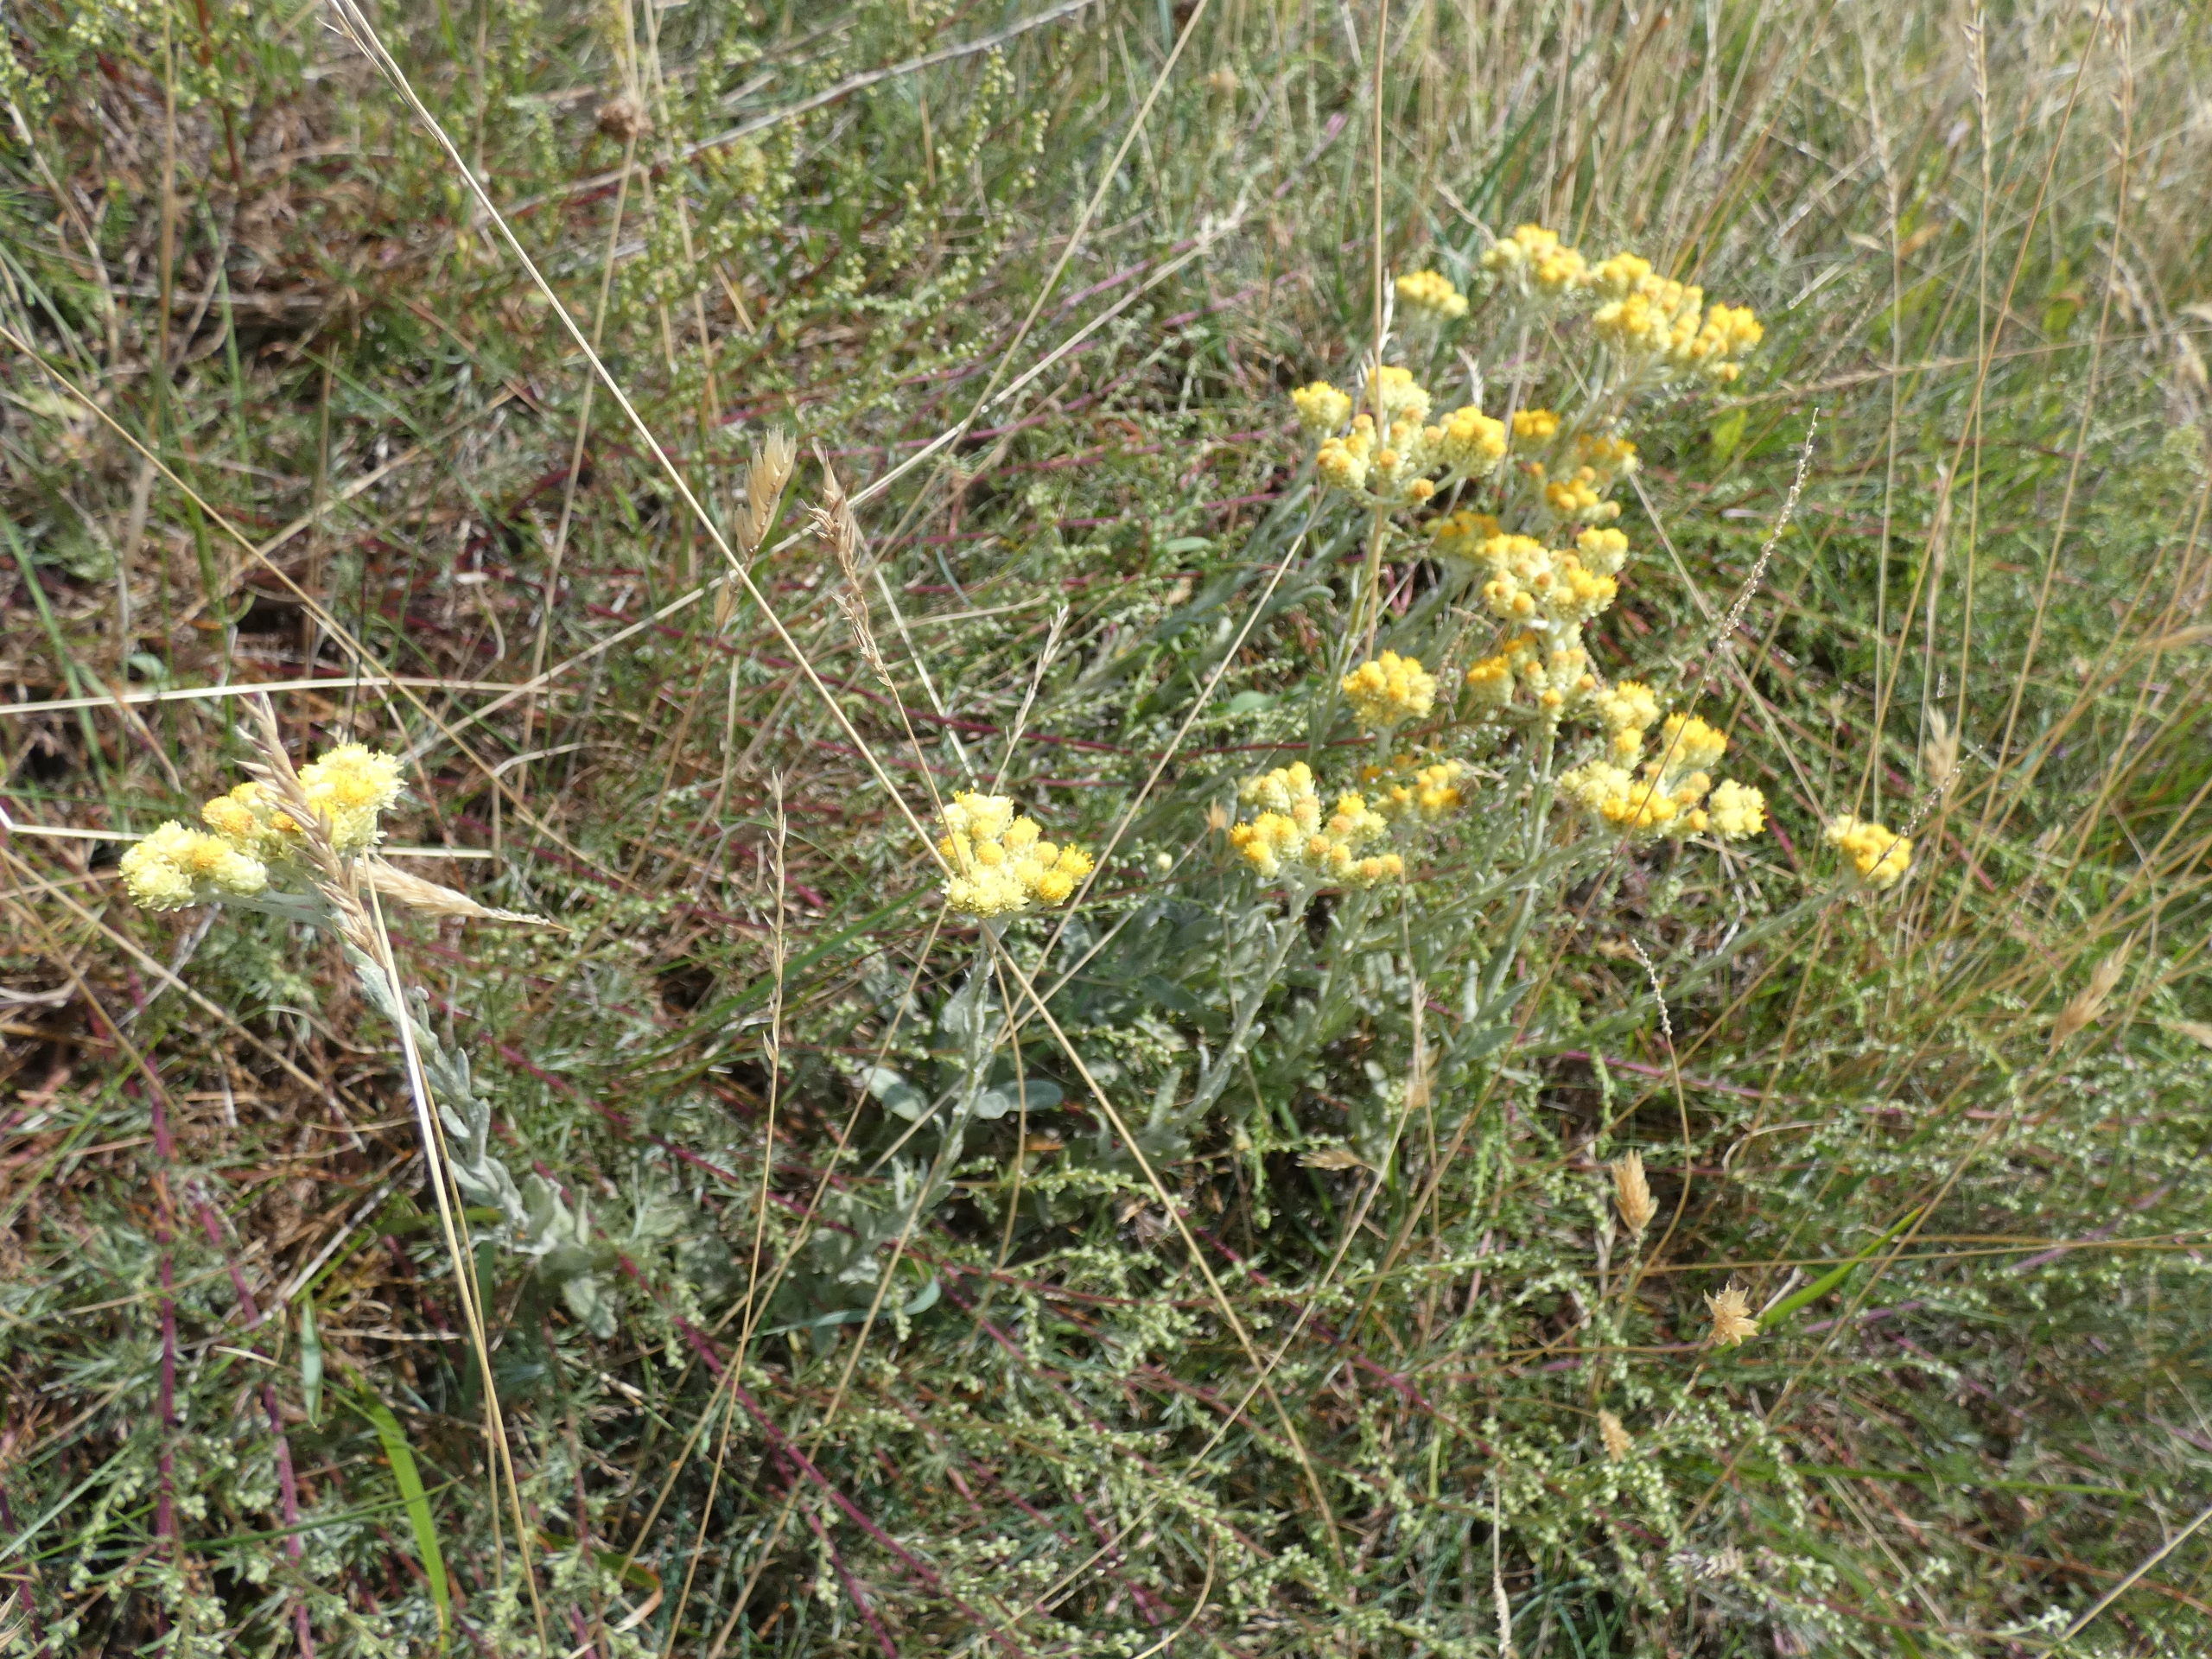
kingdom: Plantae
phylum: Tracheophyta
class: Magnoliopsida
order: Asterales
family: Asteraceae
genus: Helichrysum
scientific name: Helichrysum arenarium
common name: Gul evighedsblomst
